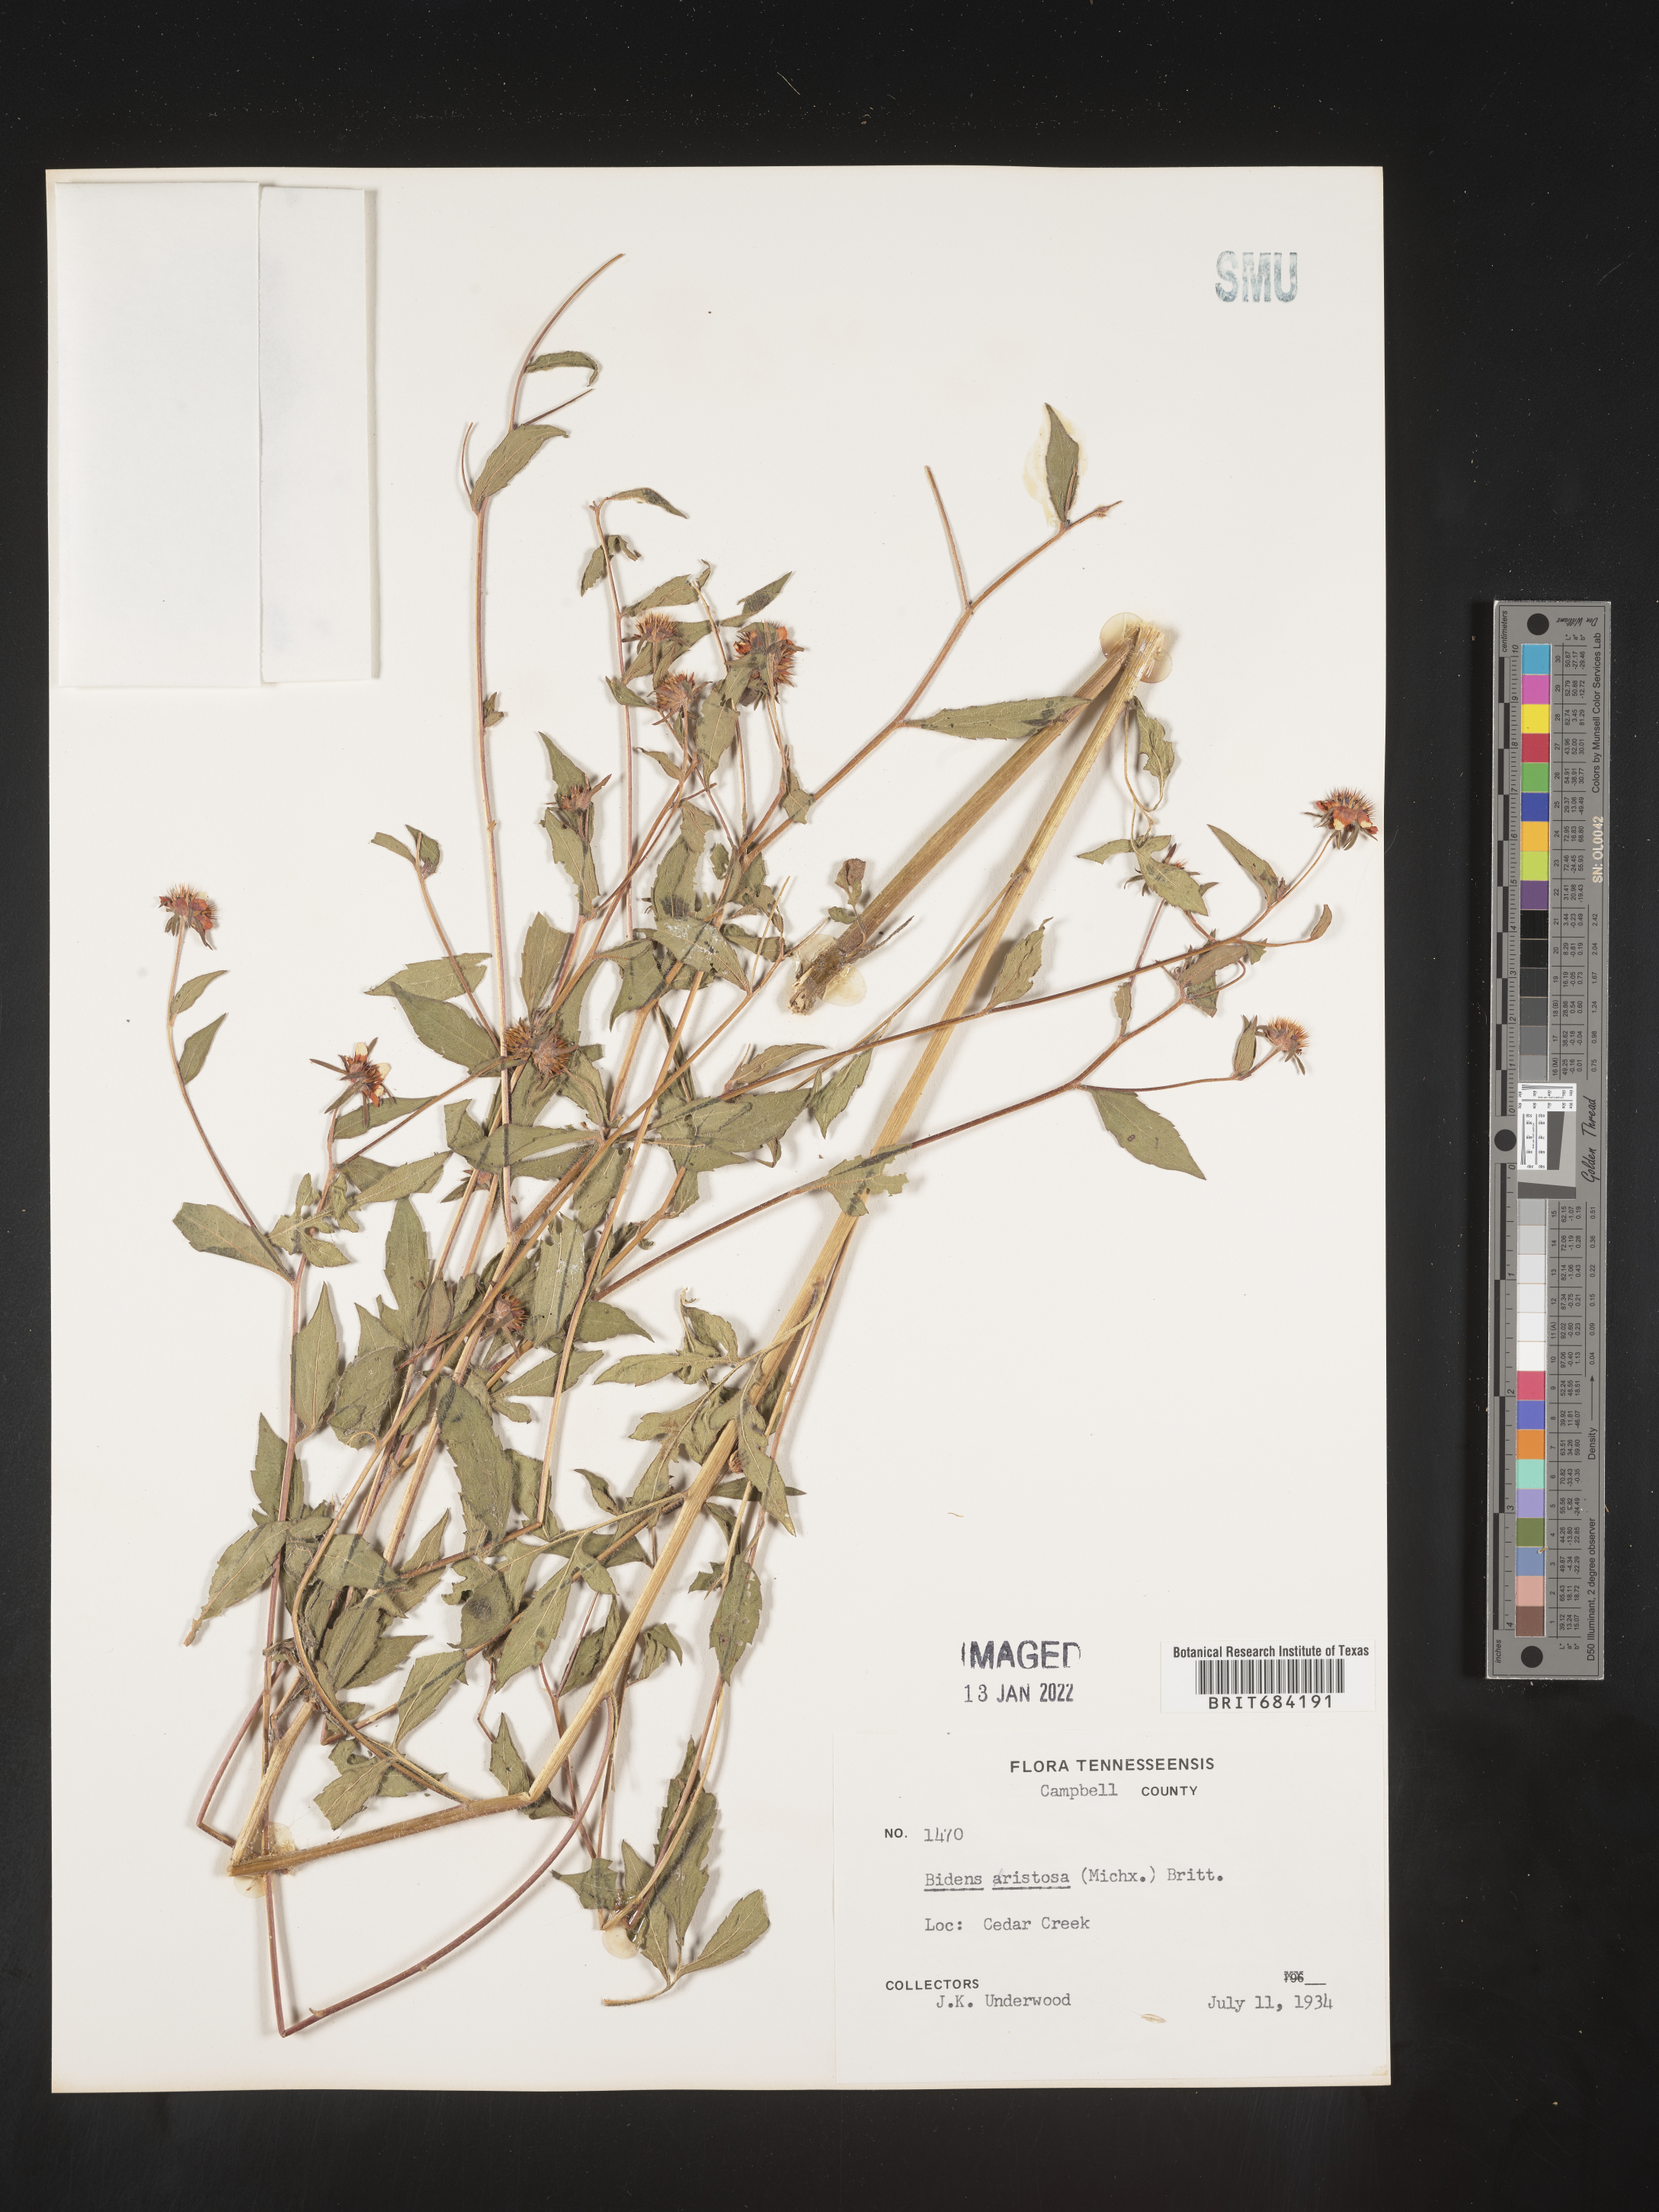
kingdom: Plantae
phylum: Tracheophyta
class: Magnoliopsida
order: Asterales
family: Asteraceae
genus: Bidens
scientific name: Bidens aristosa
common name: Western tickseed
